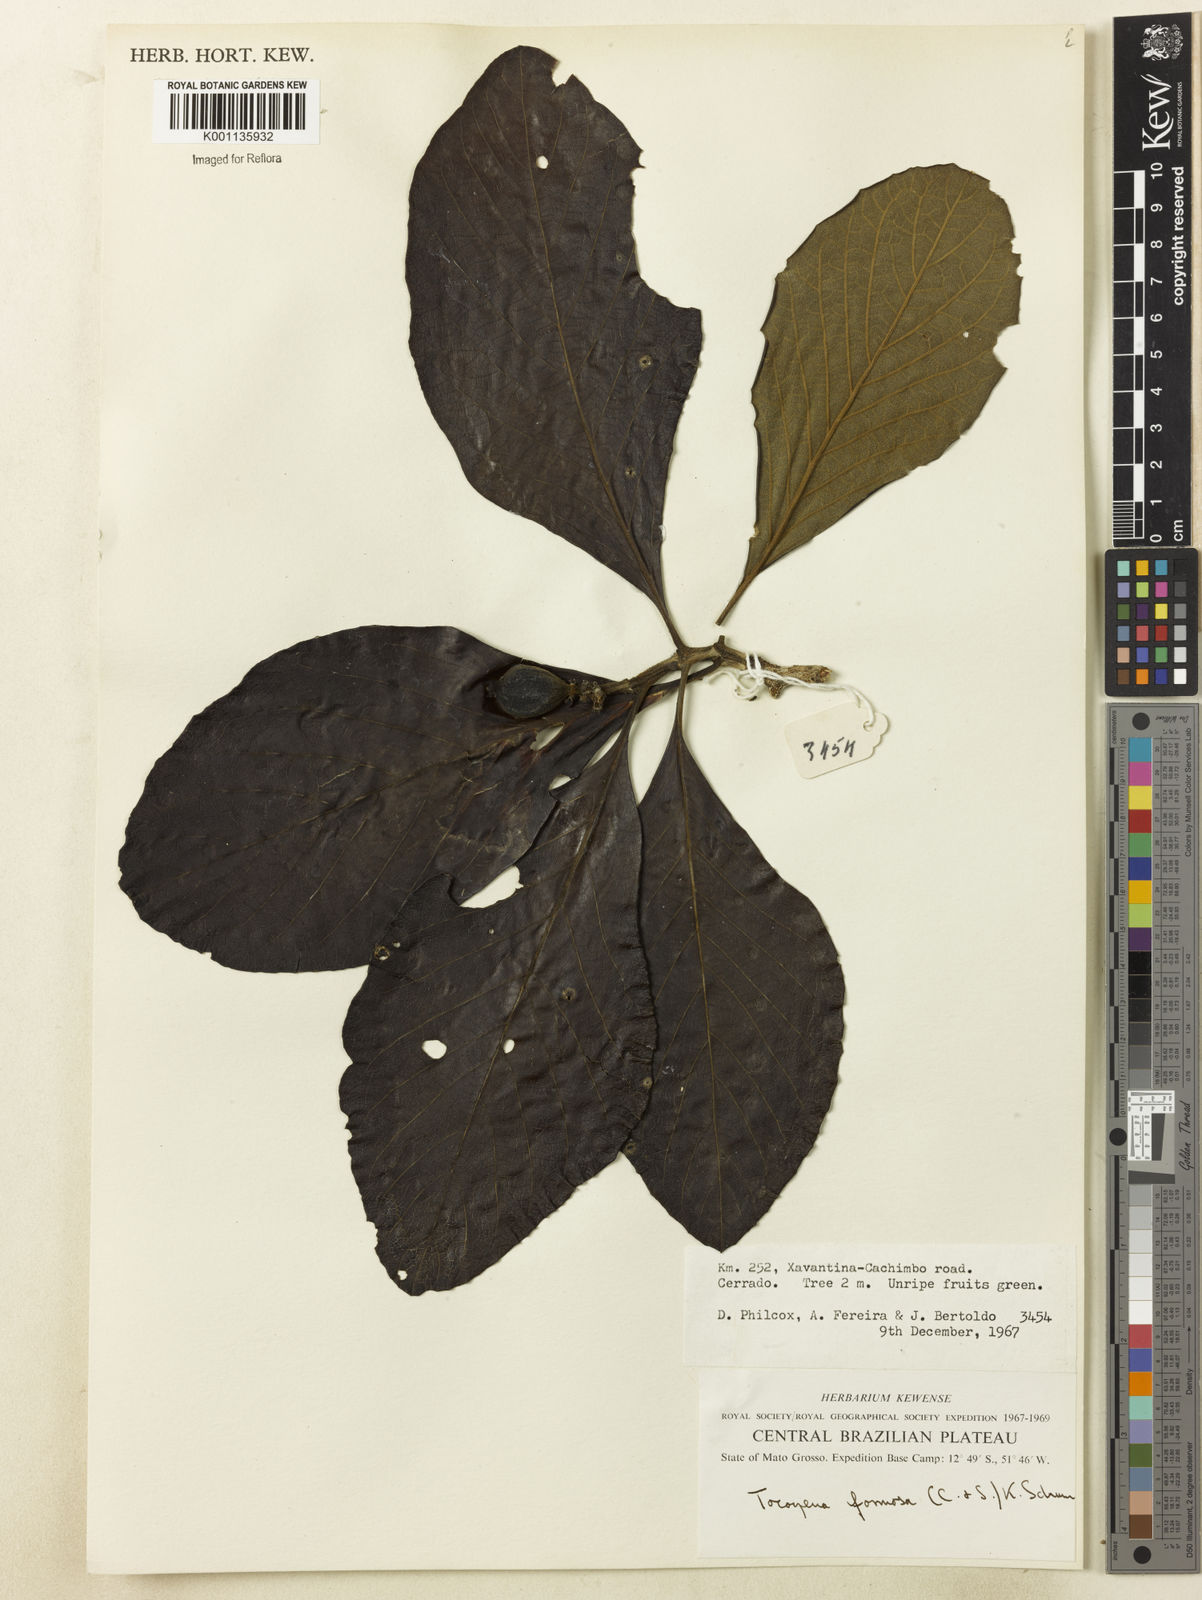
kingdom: Plantae
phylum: Tracheophyta
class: Magnoliopsida
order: Gentianales
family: Rubiaceae
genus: Tocoyena
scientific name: Tocoyena formosa
